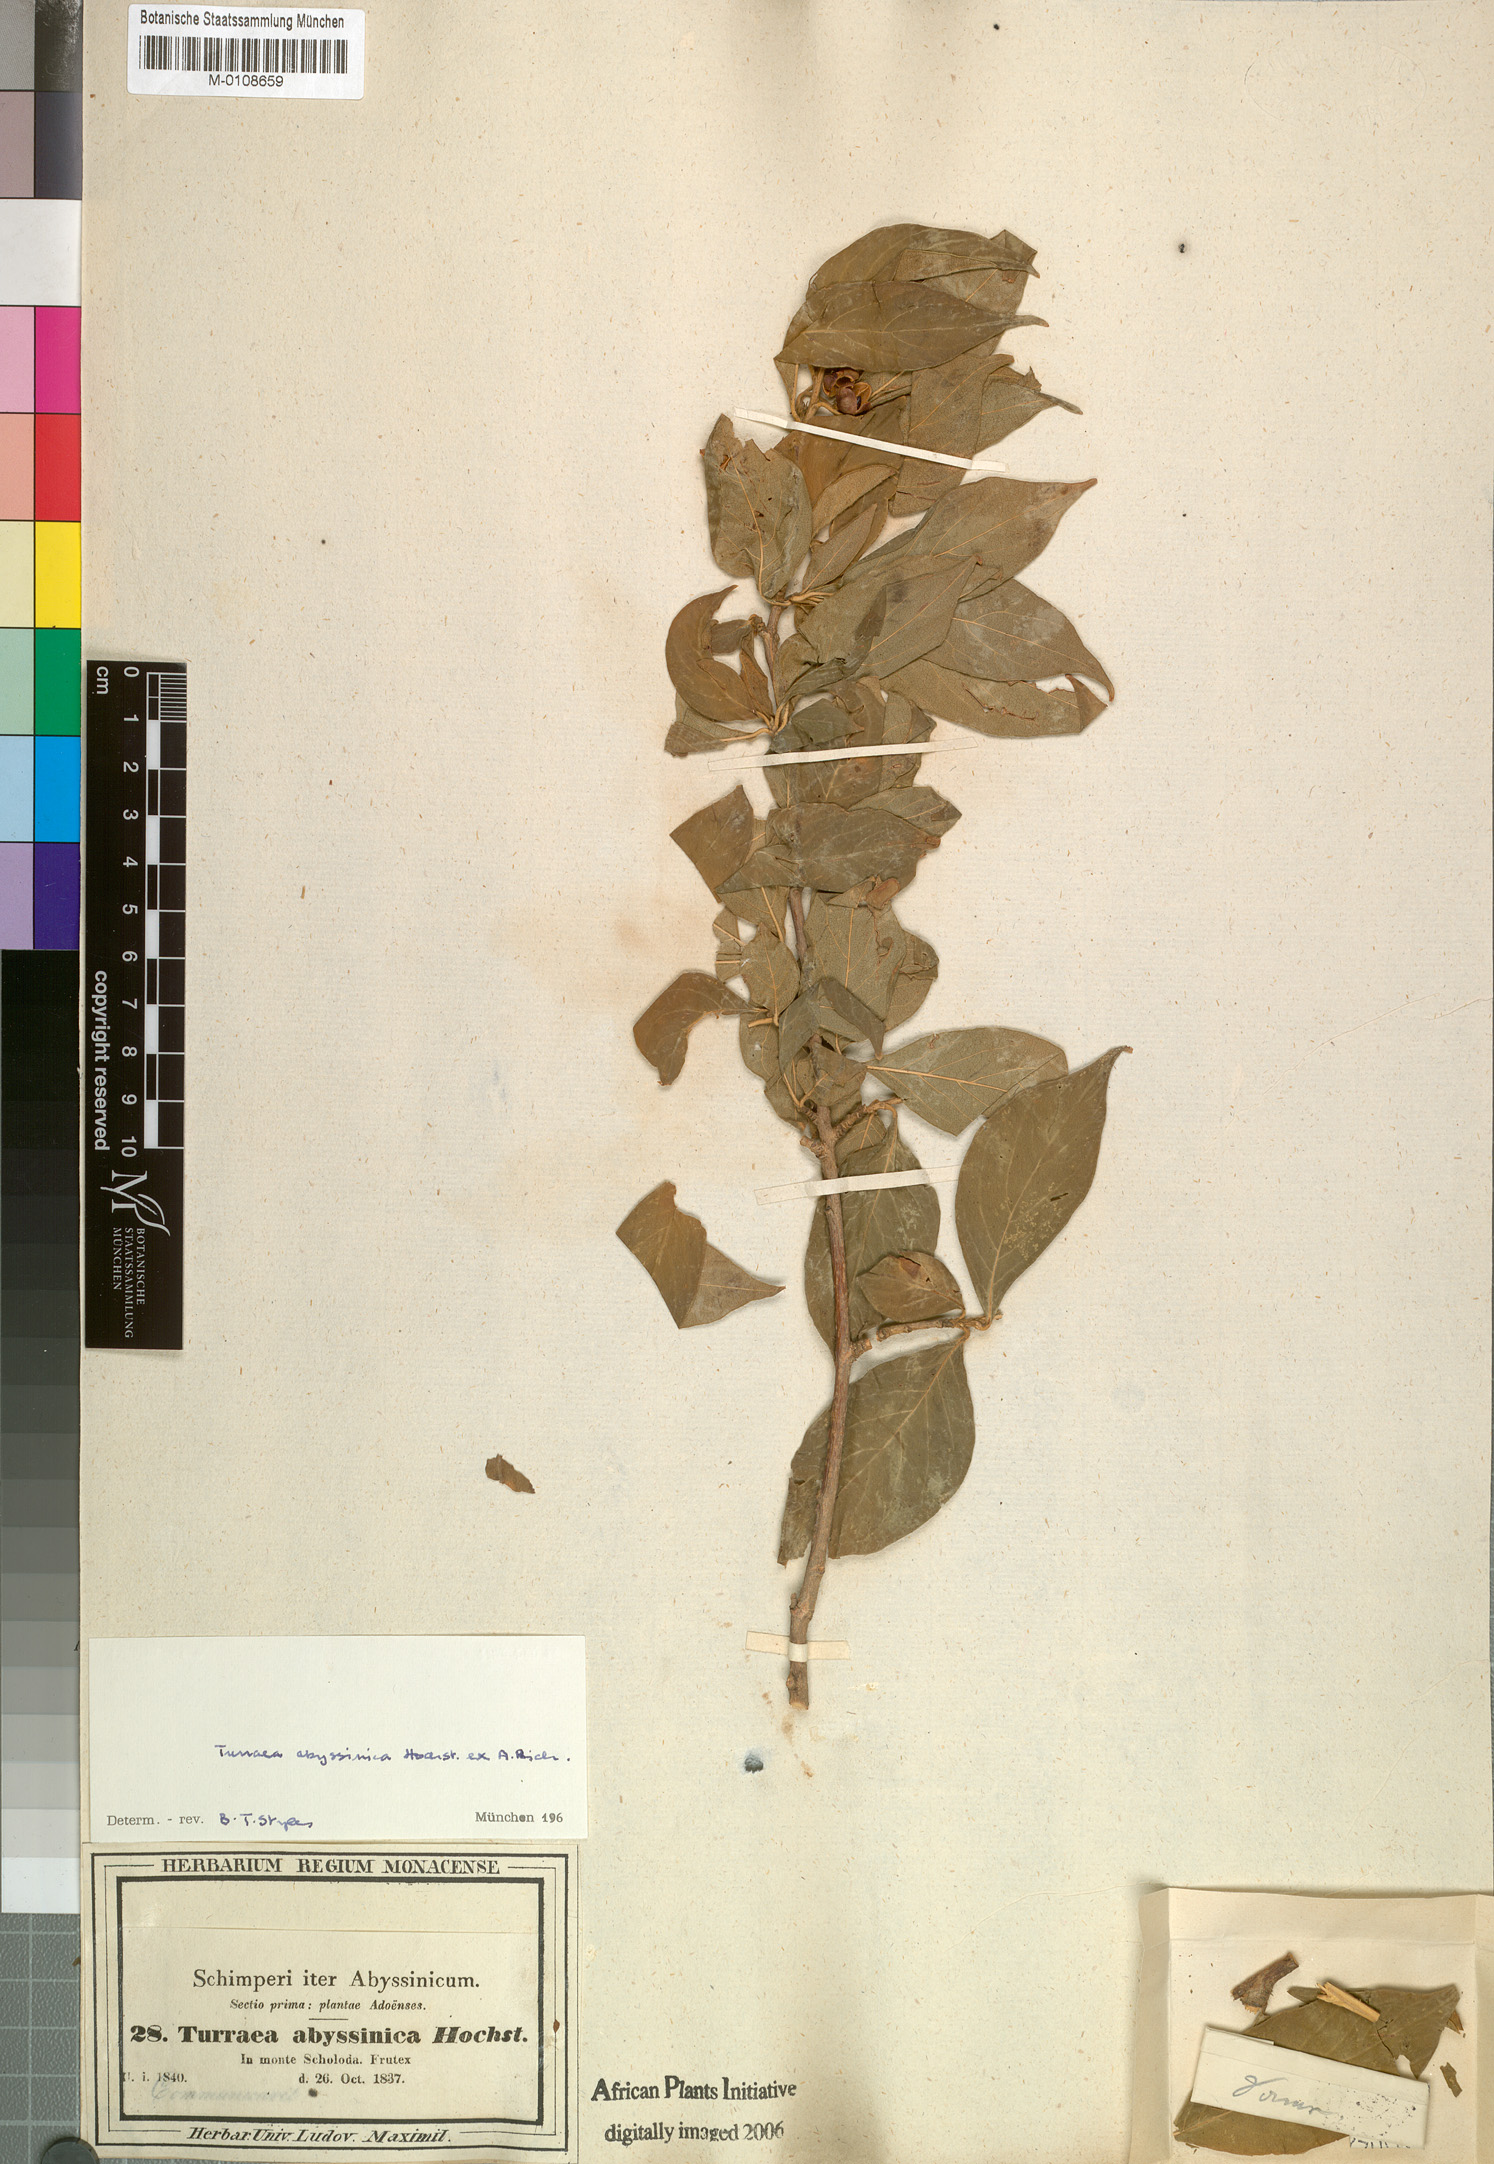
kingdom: Plantae
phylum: Tracheophyta
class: Magnoliopsida
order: Sapindales
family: Meliaceae
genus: Turraea
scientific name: Turraea abyssinica
